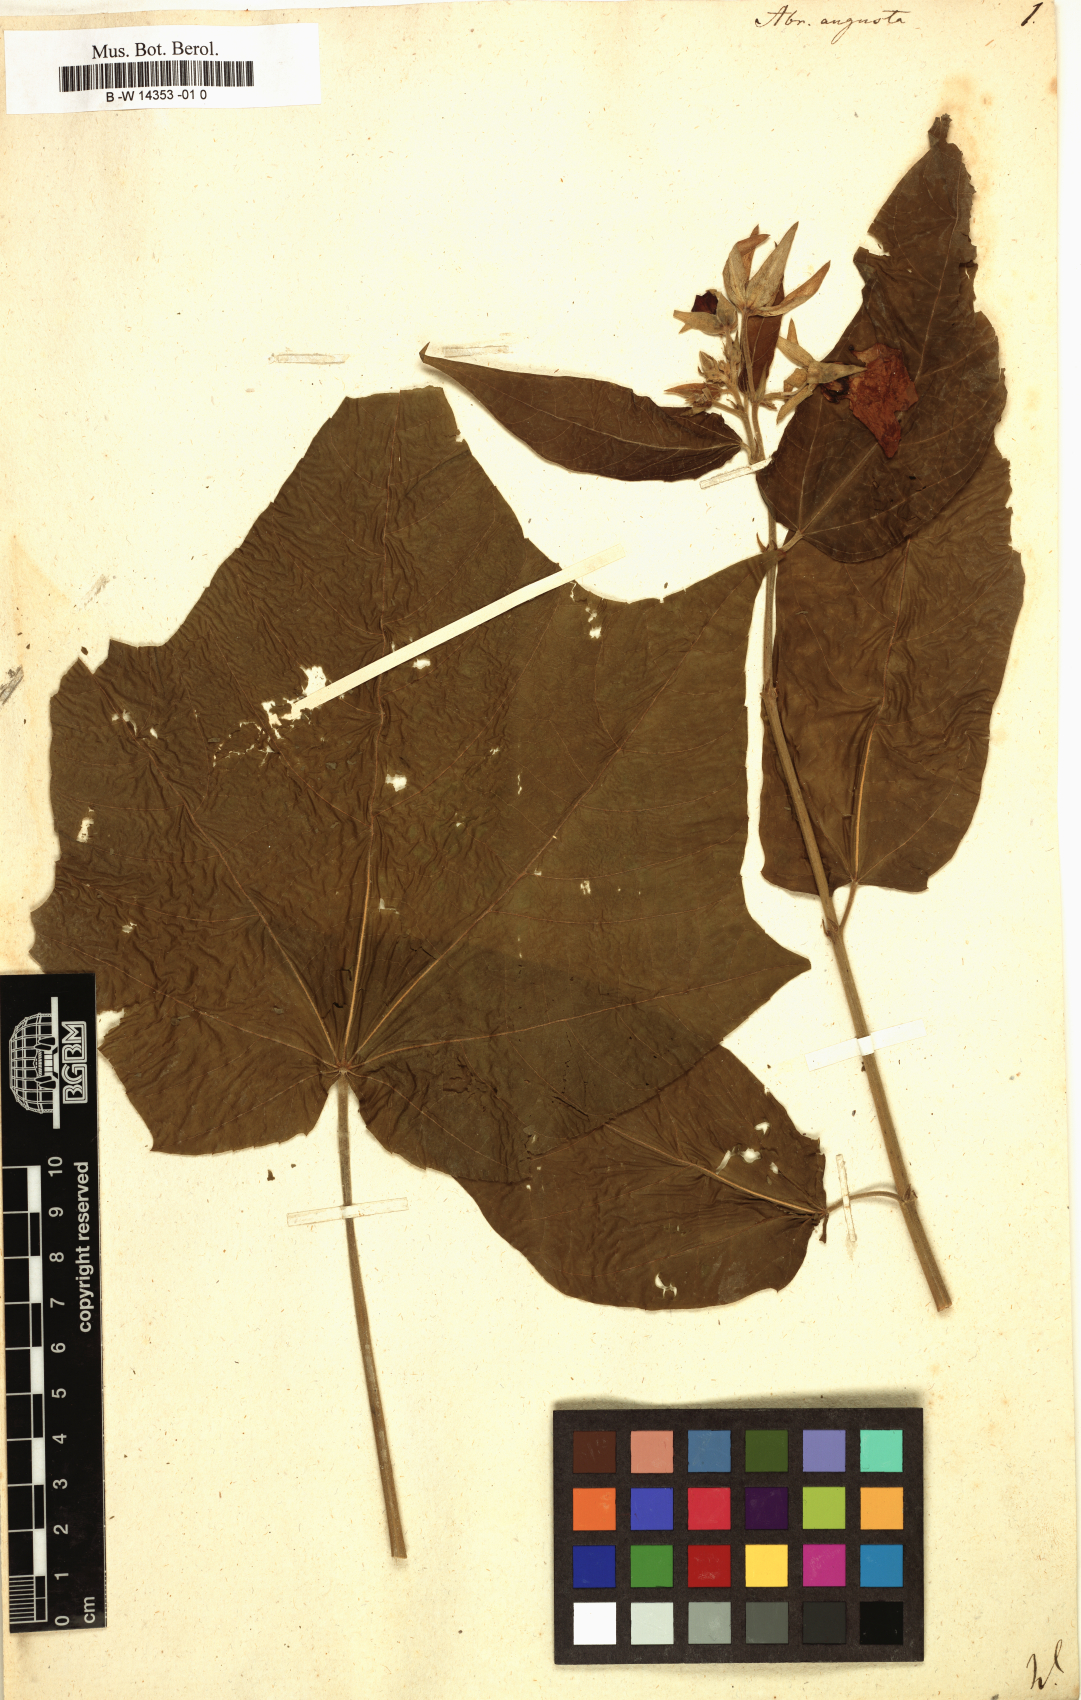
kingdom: Plantae
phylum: Tracheophyta
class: Magnoliopsida
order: Malvales
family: Malvaceae
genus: Abroma
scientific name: Abroma augustum
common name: Devil's-cotton
